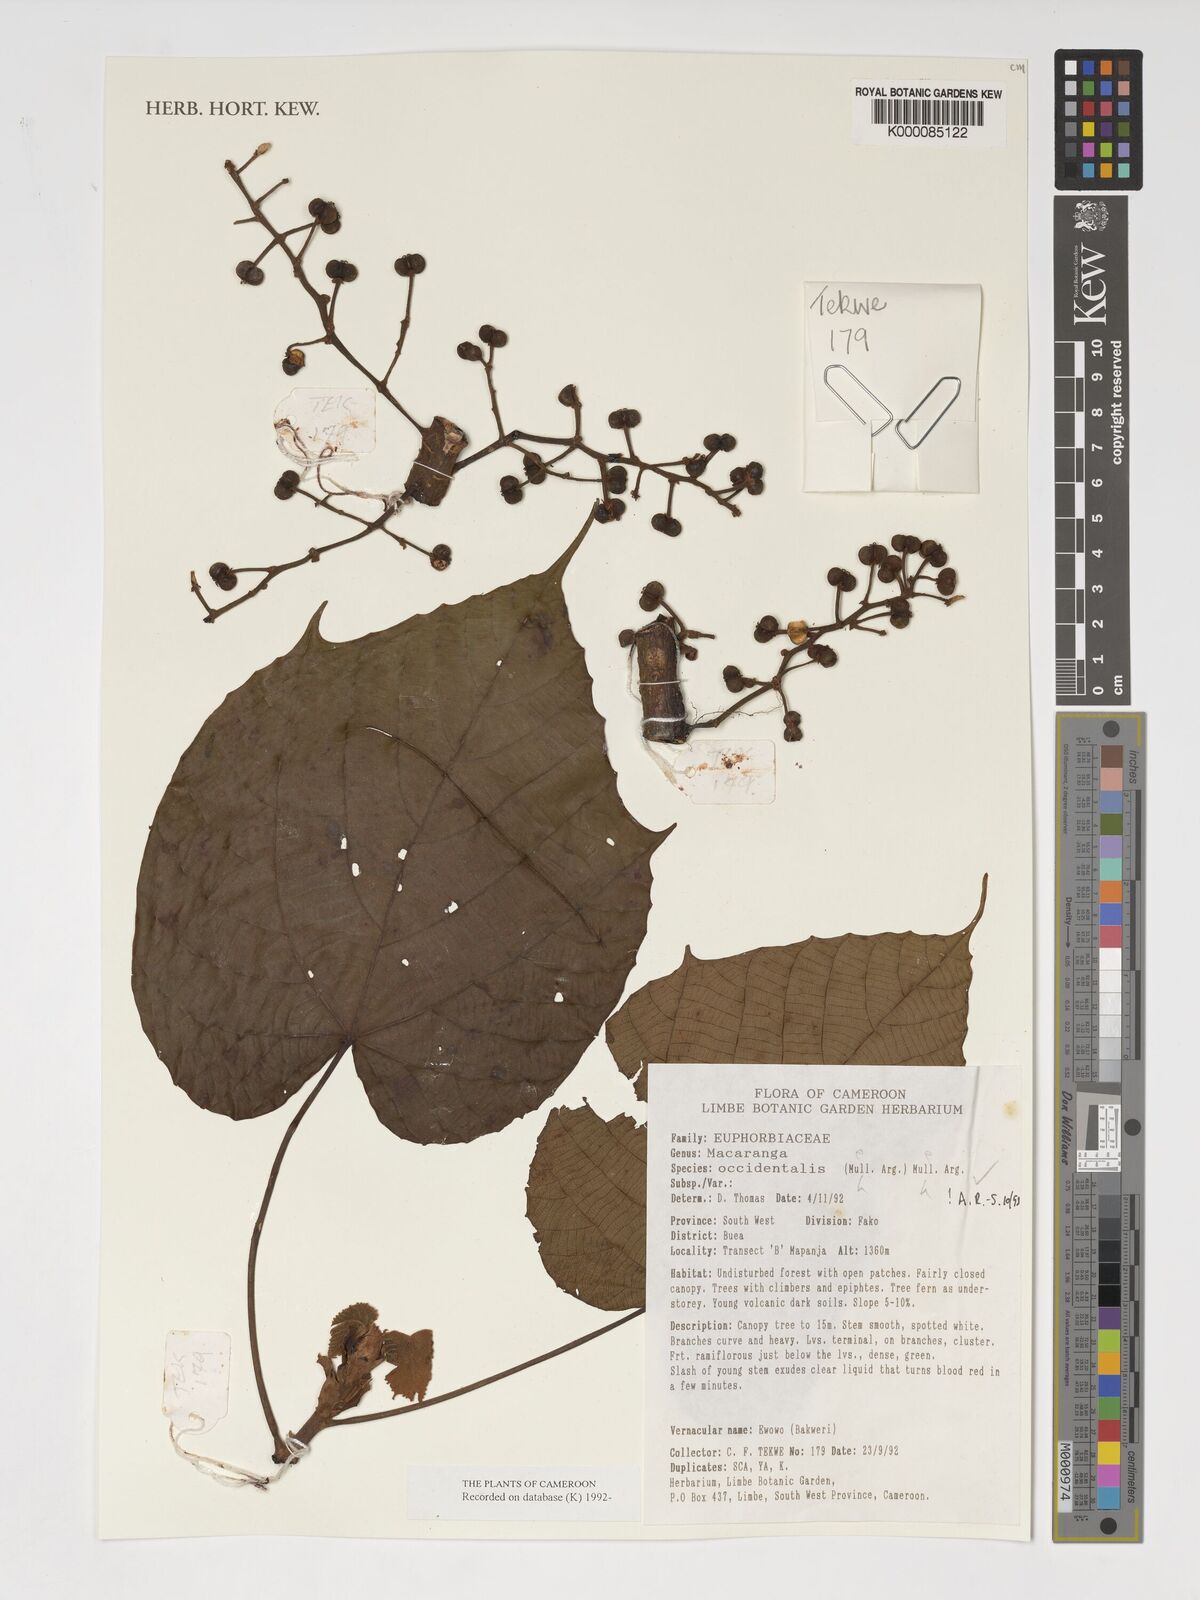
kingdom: Plantae
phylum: Tracheophyta
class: Magnoliopsida
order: Malpighiales
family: Euphorbiaceae
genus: Macaranga
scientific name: Macaranga
